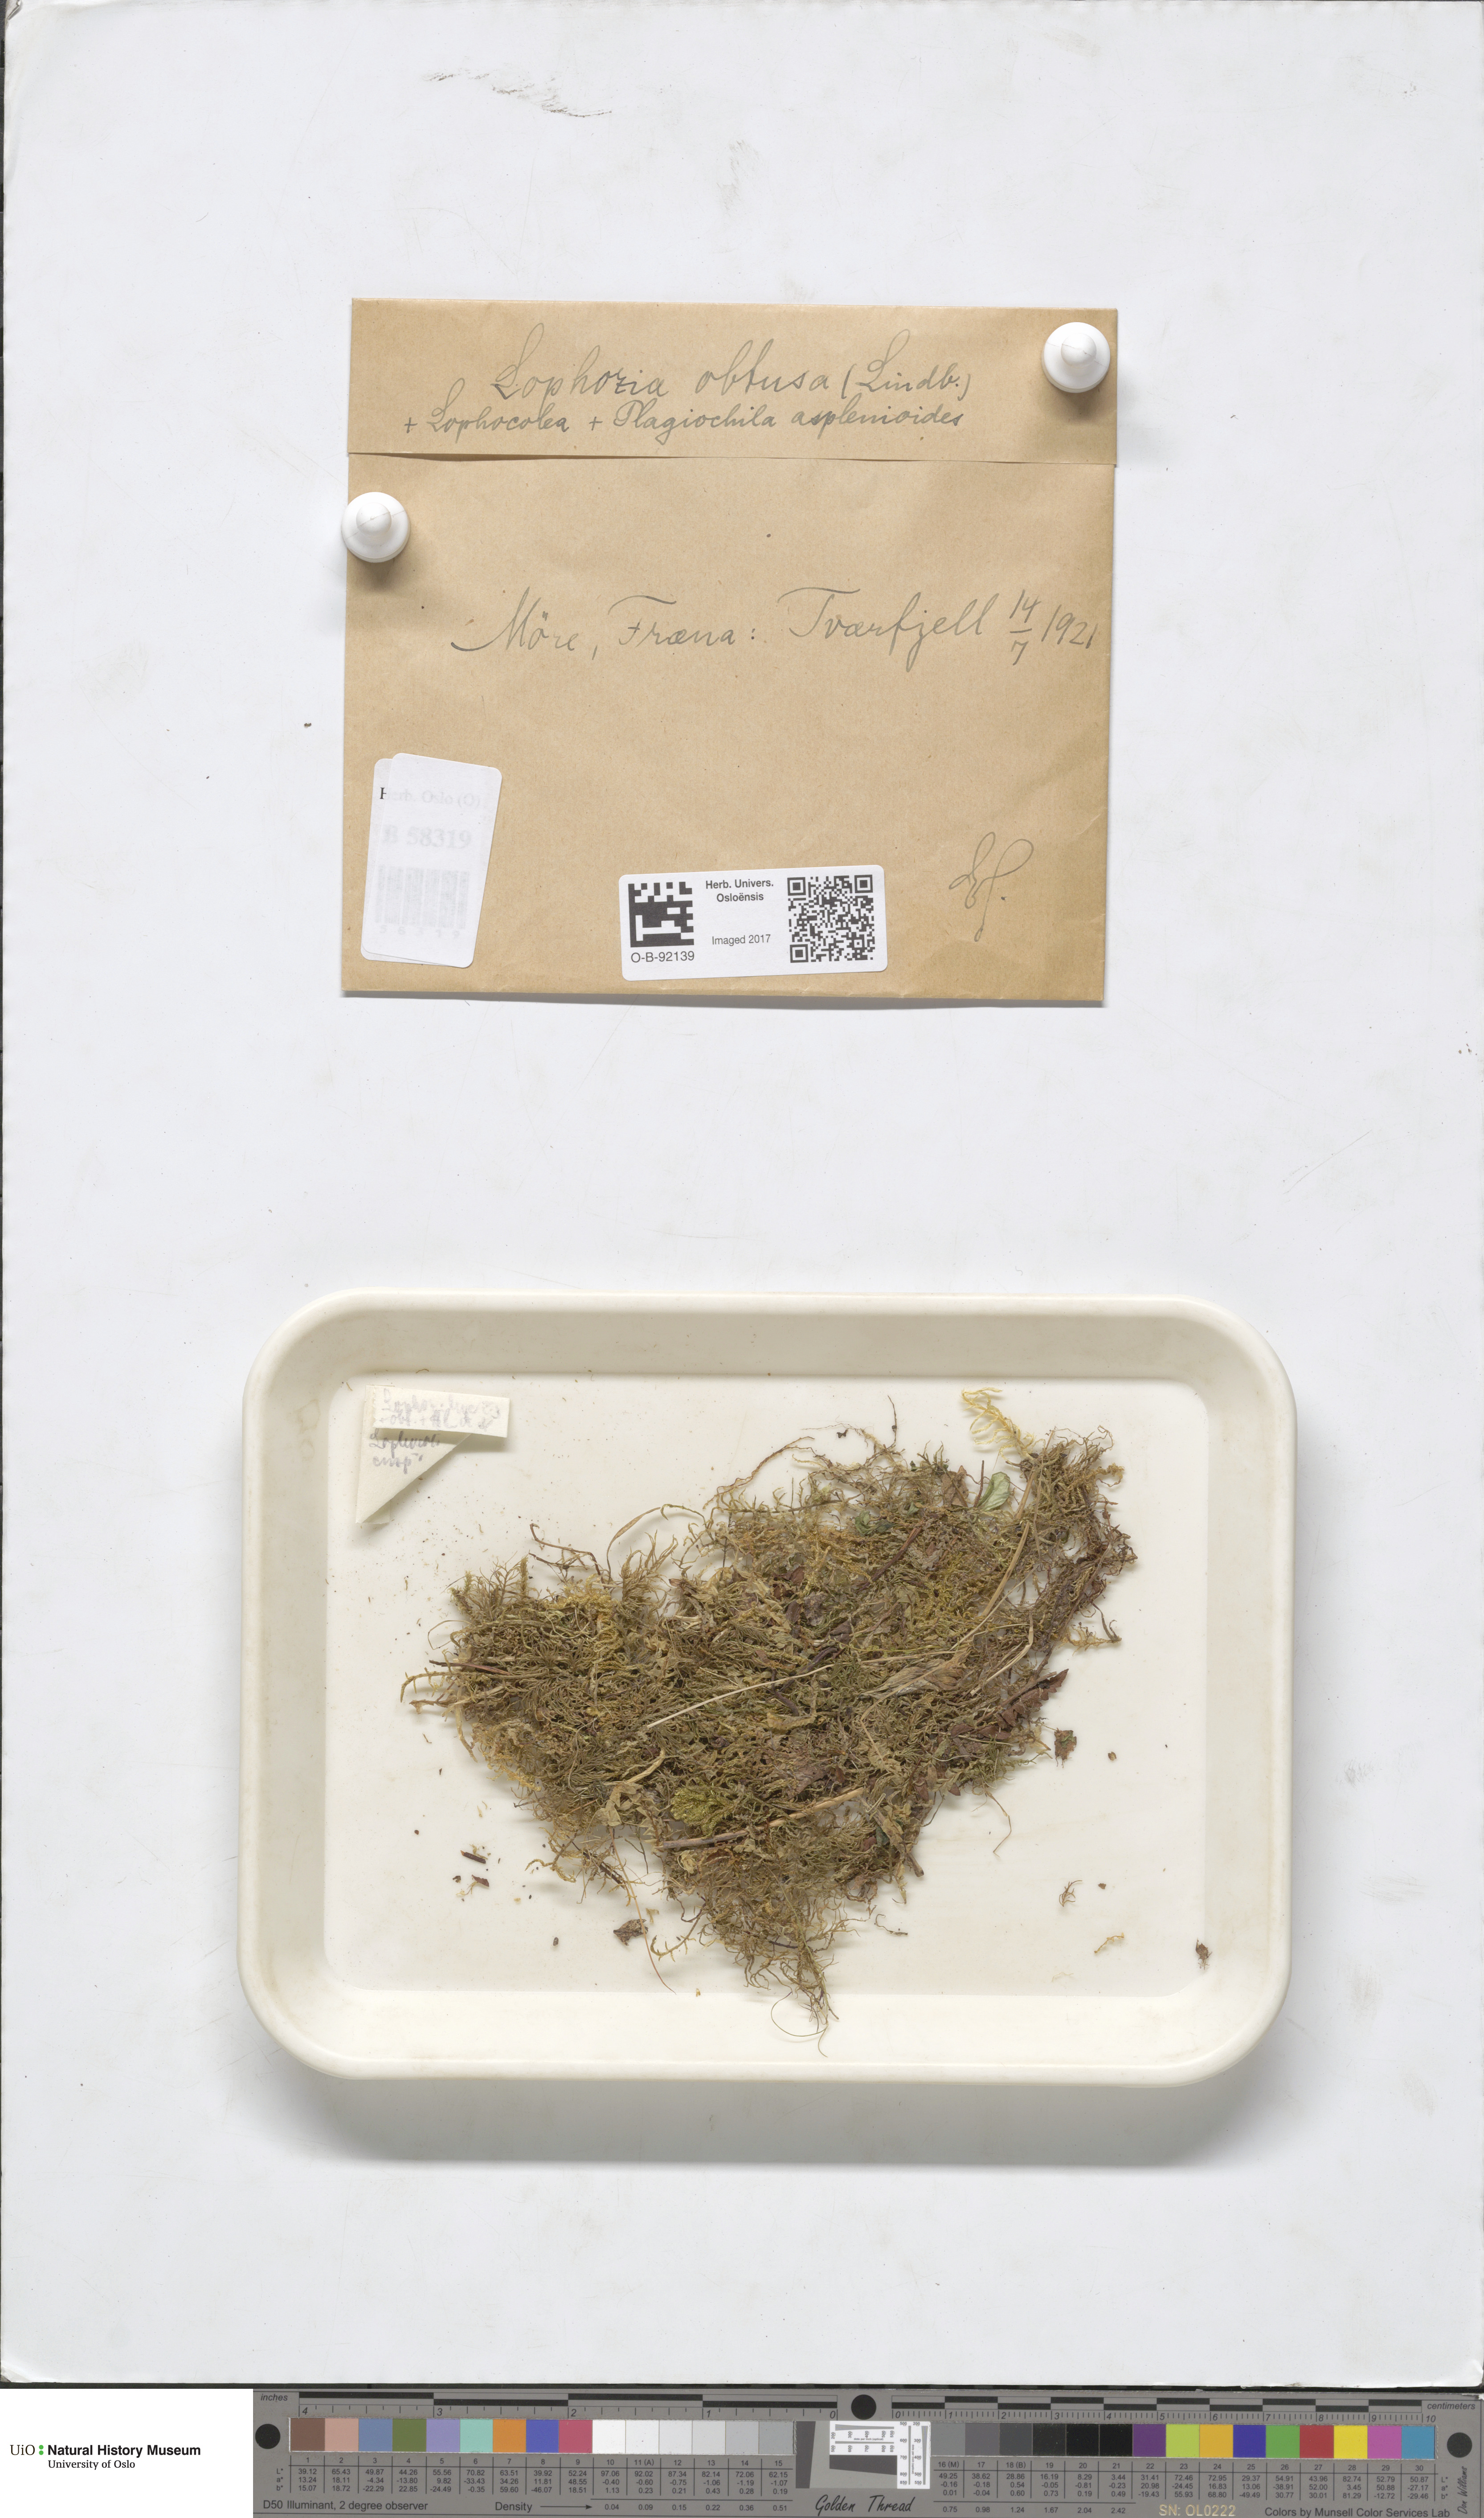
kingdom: Plantae
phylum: Marchantiophyta
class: Jungermanniopsida
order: Jungermanniales
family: Obtusifoliaceae
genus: Obtusifolium
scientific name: Obtusifolium obtusum
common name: Obtuse notchwort
